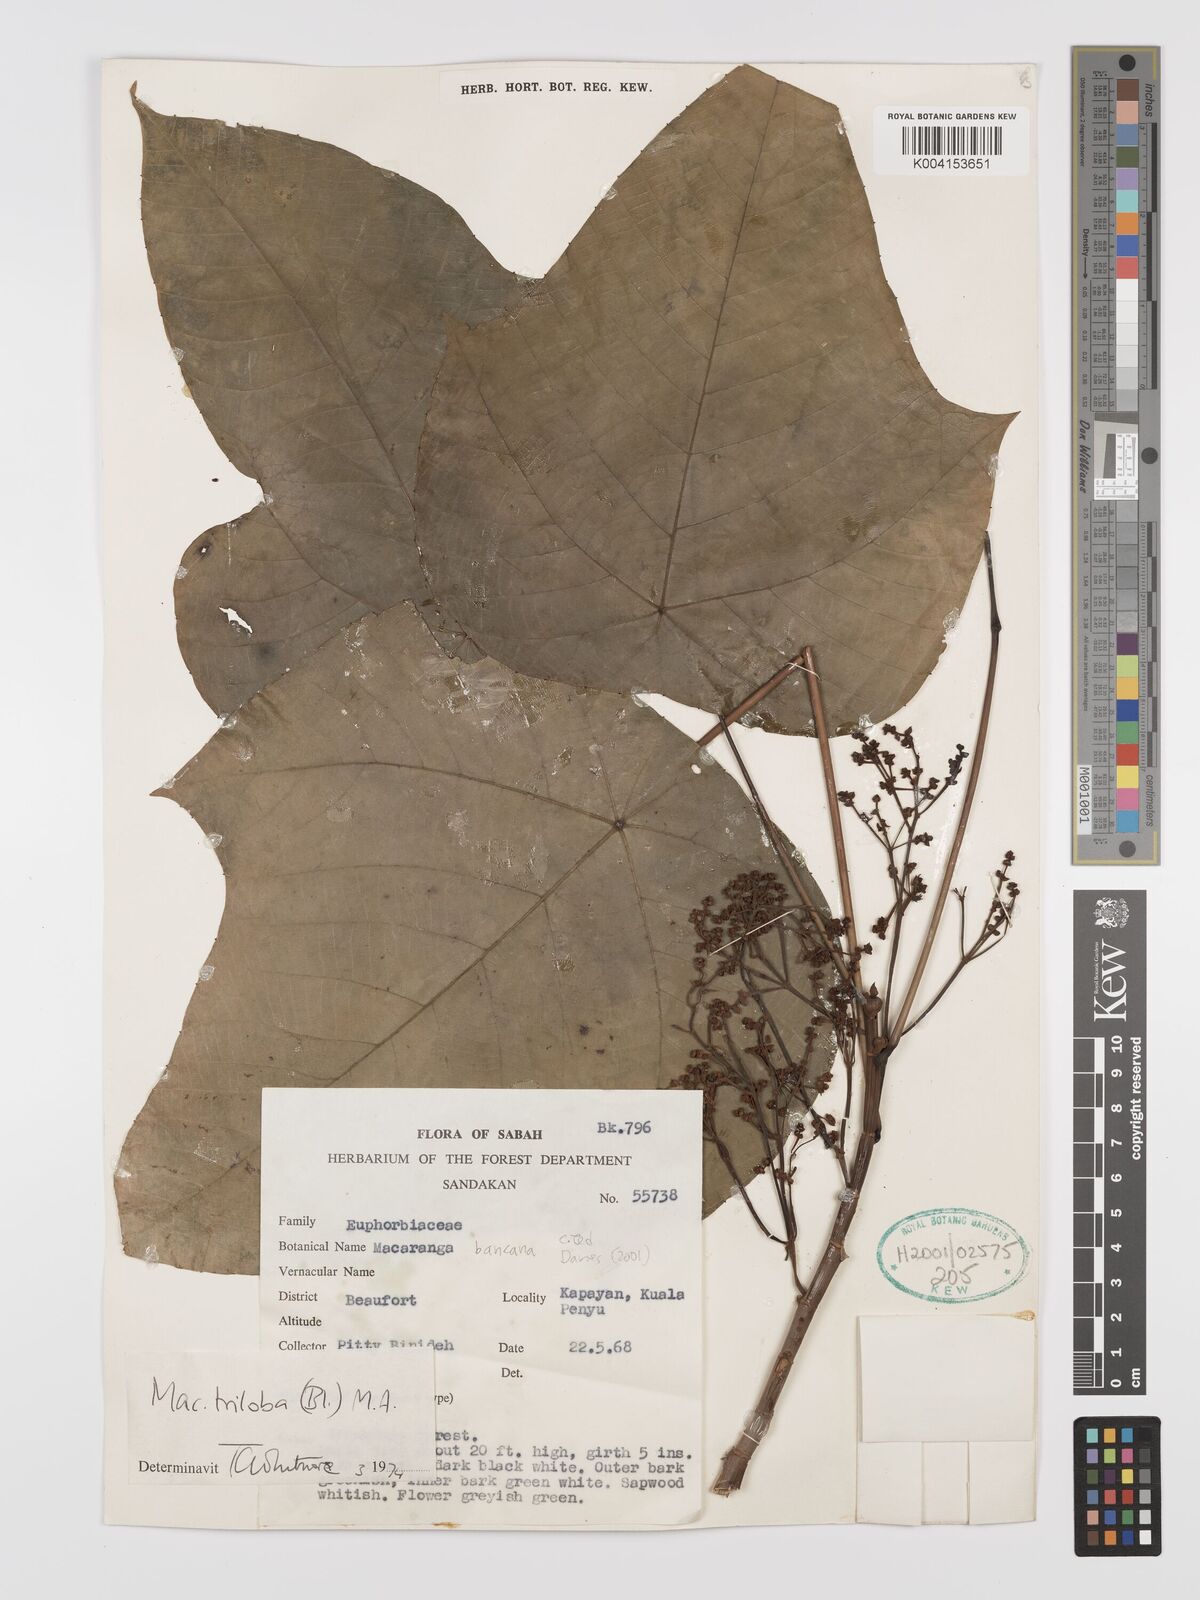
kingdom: Plantae
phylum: Tracheophyta
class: Magnoliopsida
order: Malpighiales
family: Euphorbiaceae
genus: Macaranga
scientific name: Macaranga triloba
